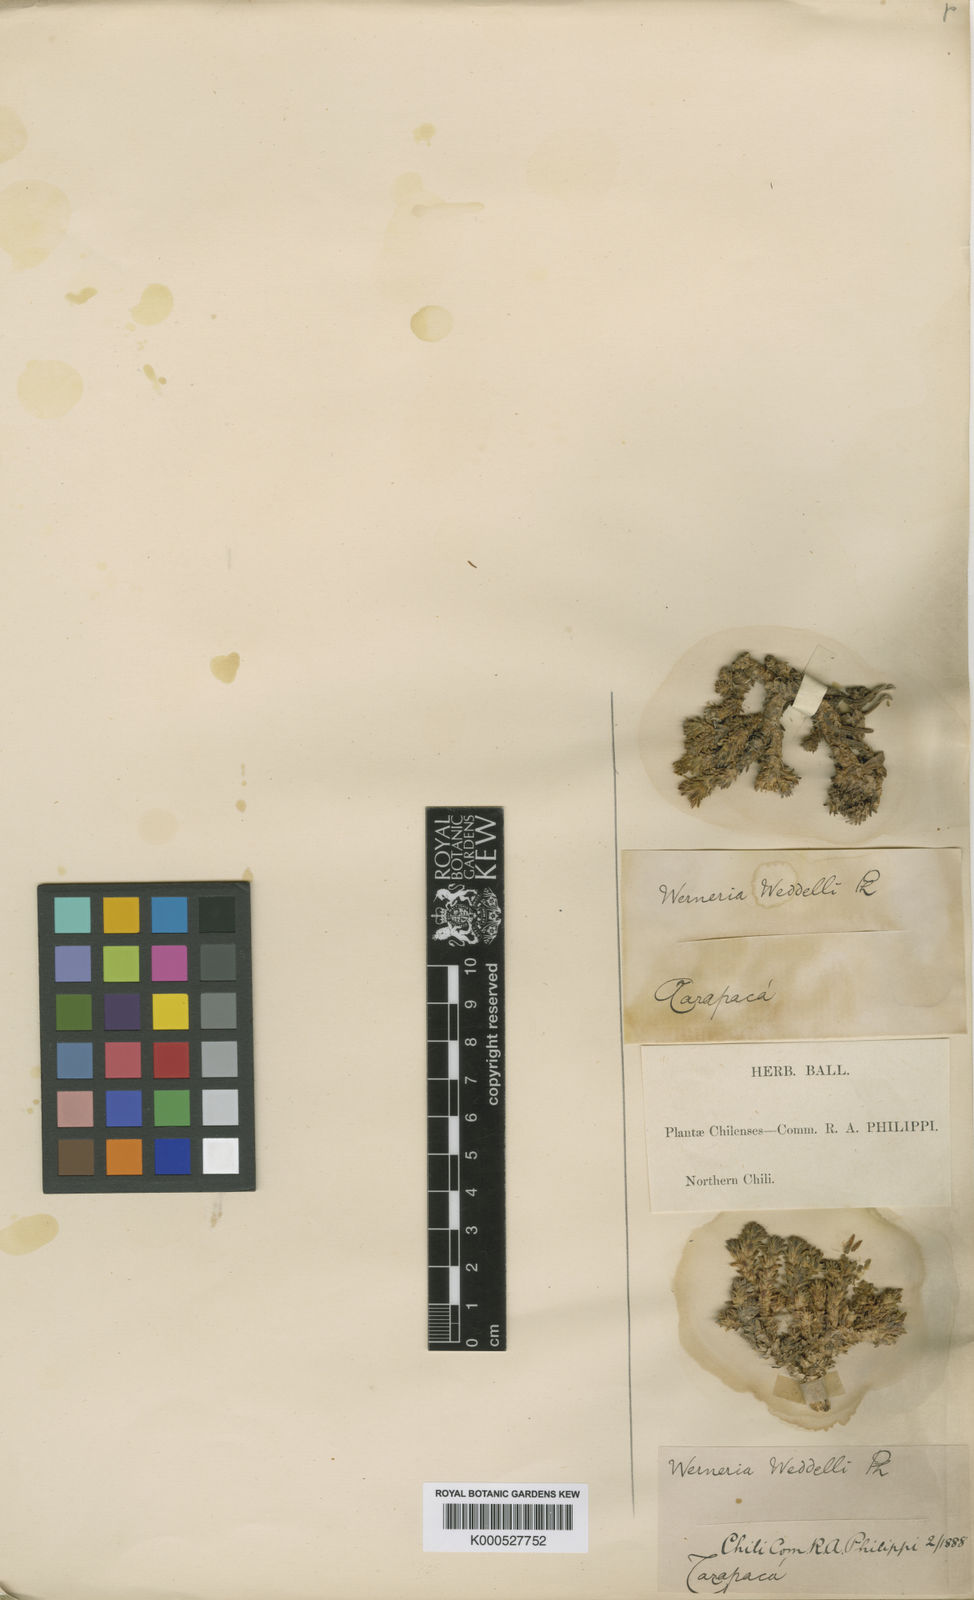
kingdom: Plantae
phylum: Tracheophyta
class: Magnoliopsida
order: Asterales
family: Asteraceae
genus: Werneria
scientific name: Werneria weddellii
